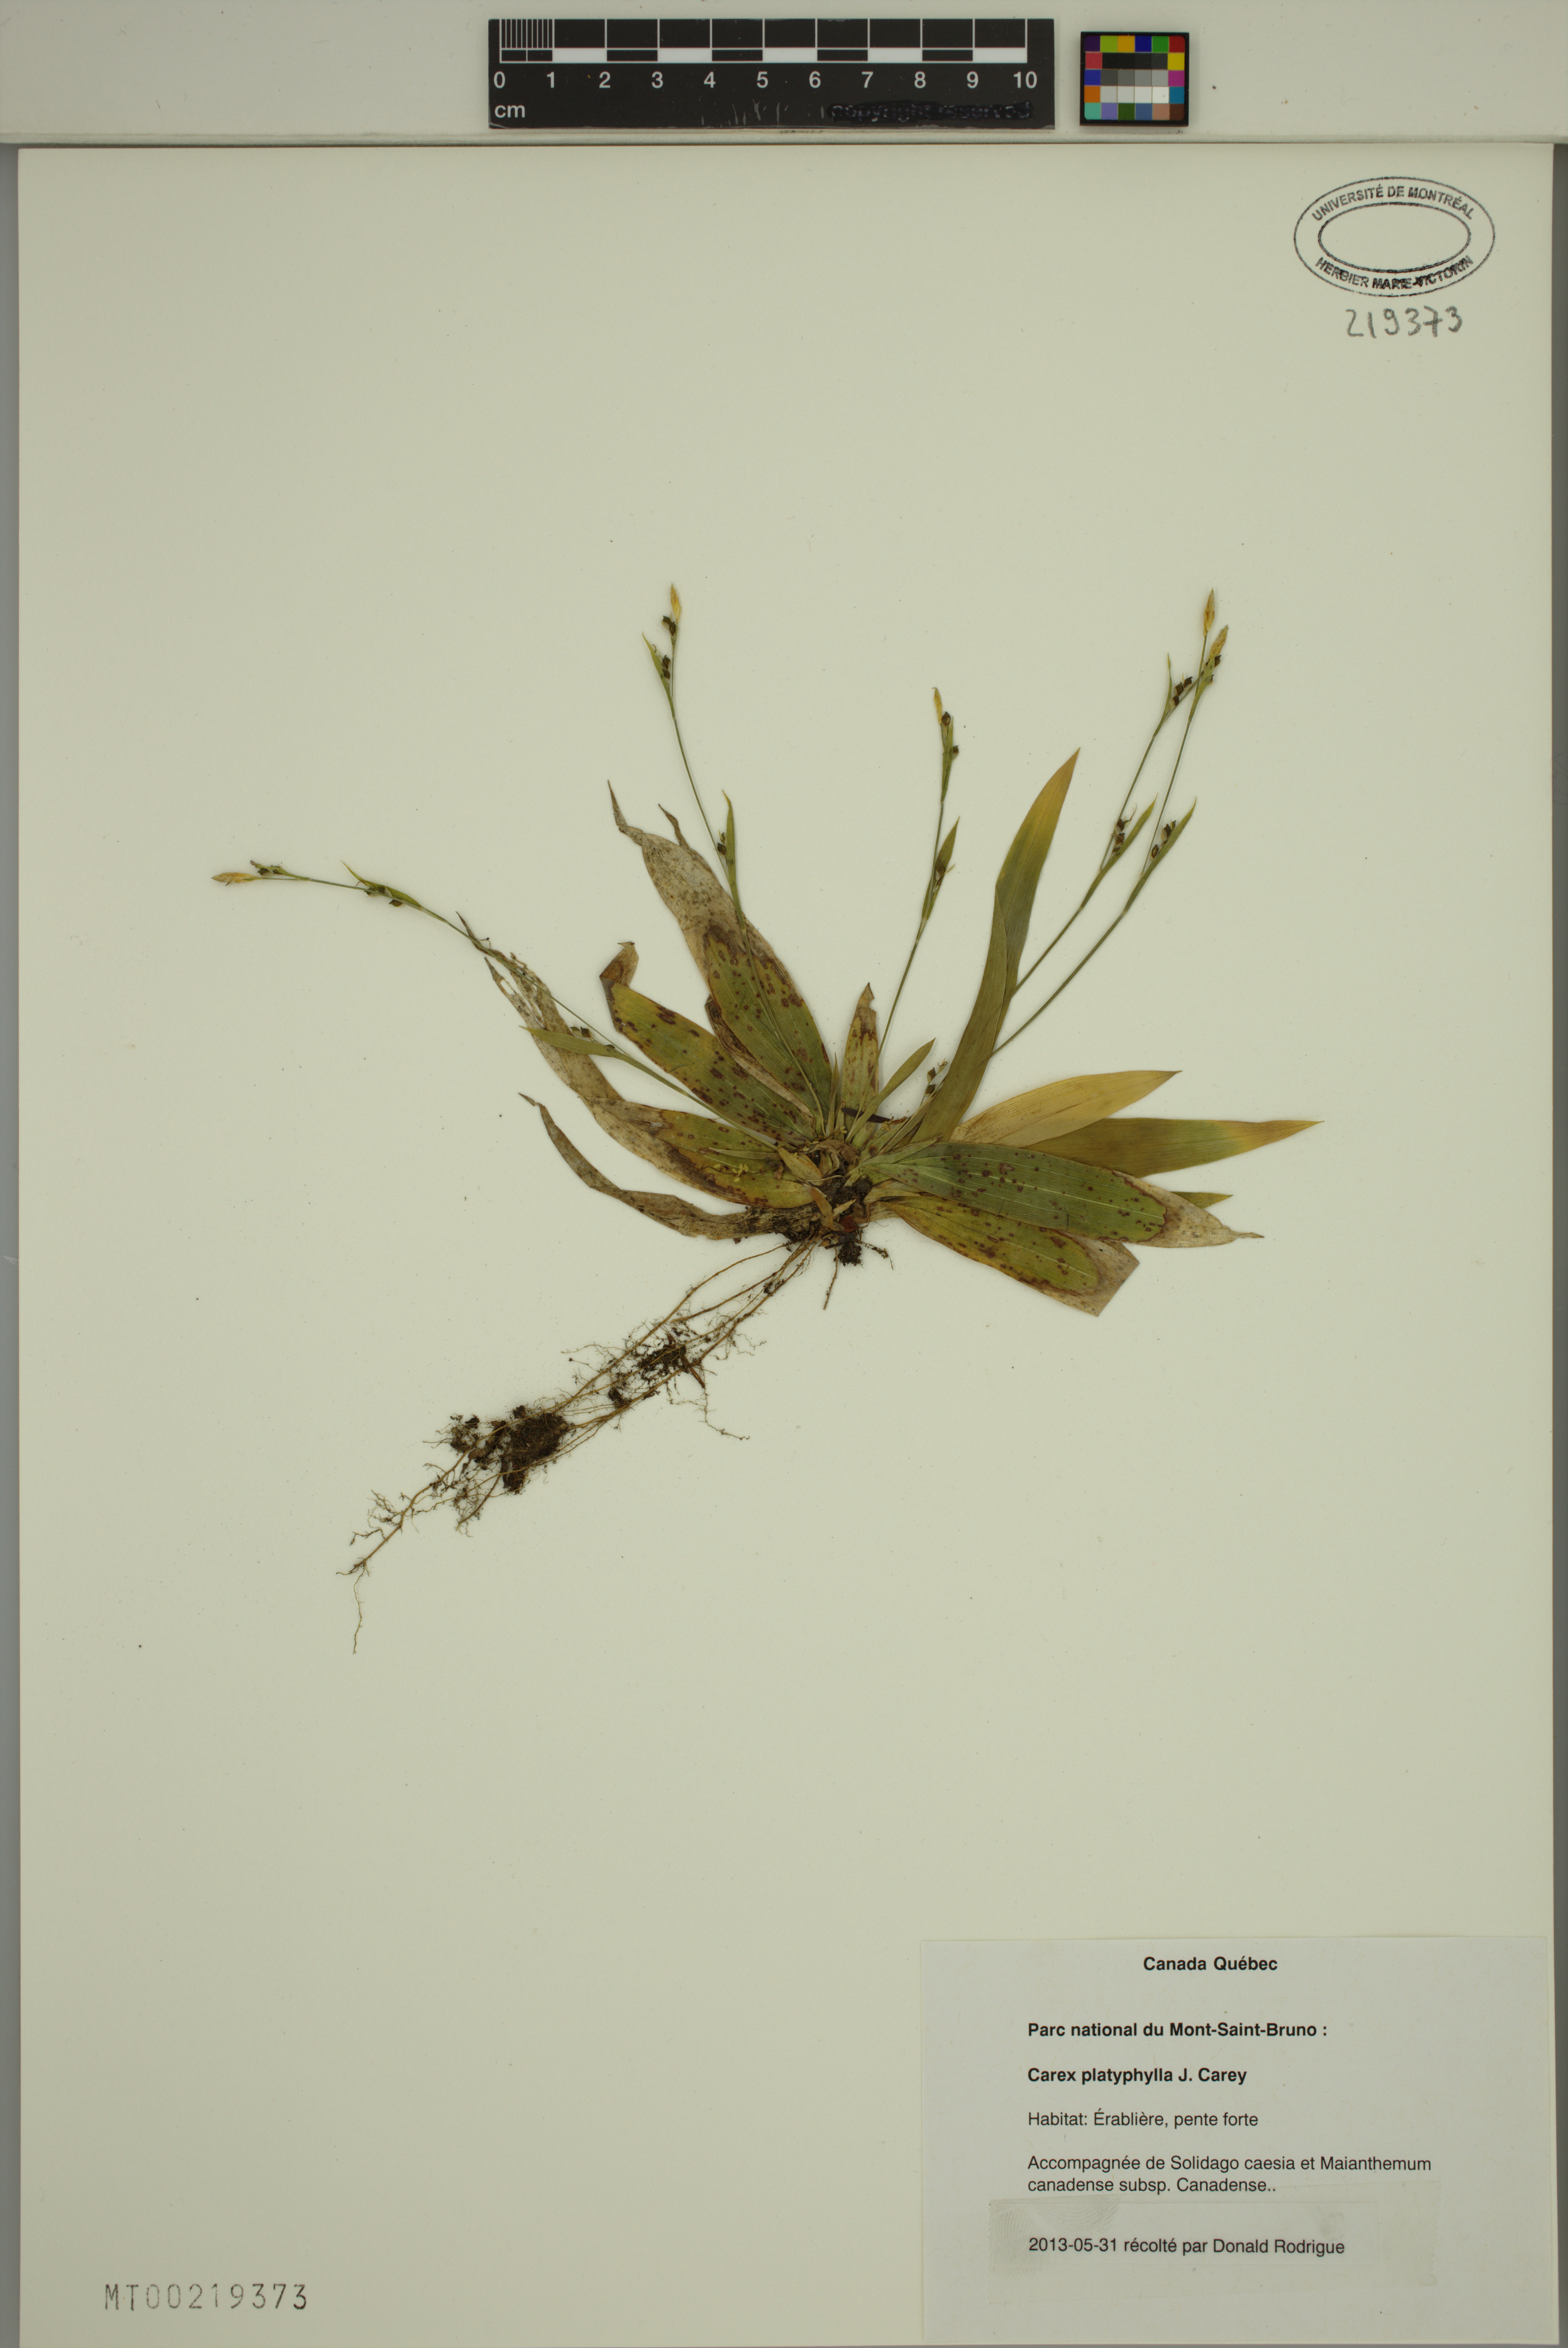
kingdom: Plantae
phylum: Tracheophyta
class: Liliopsida
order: Poales
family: Cyperaceae
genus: Carex
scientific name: Carex platyphylla
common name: Broad-leaved sedge
